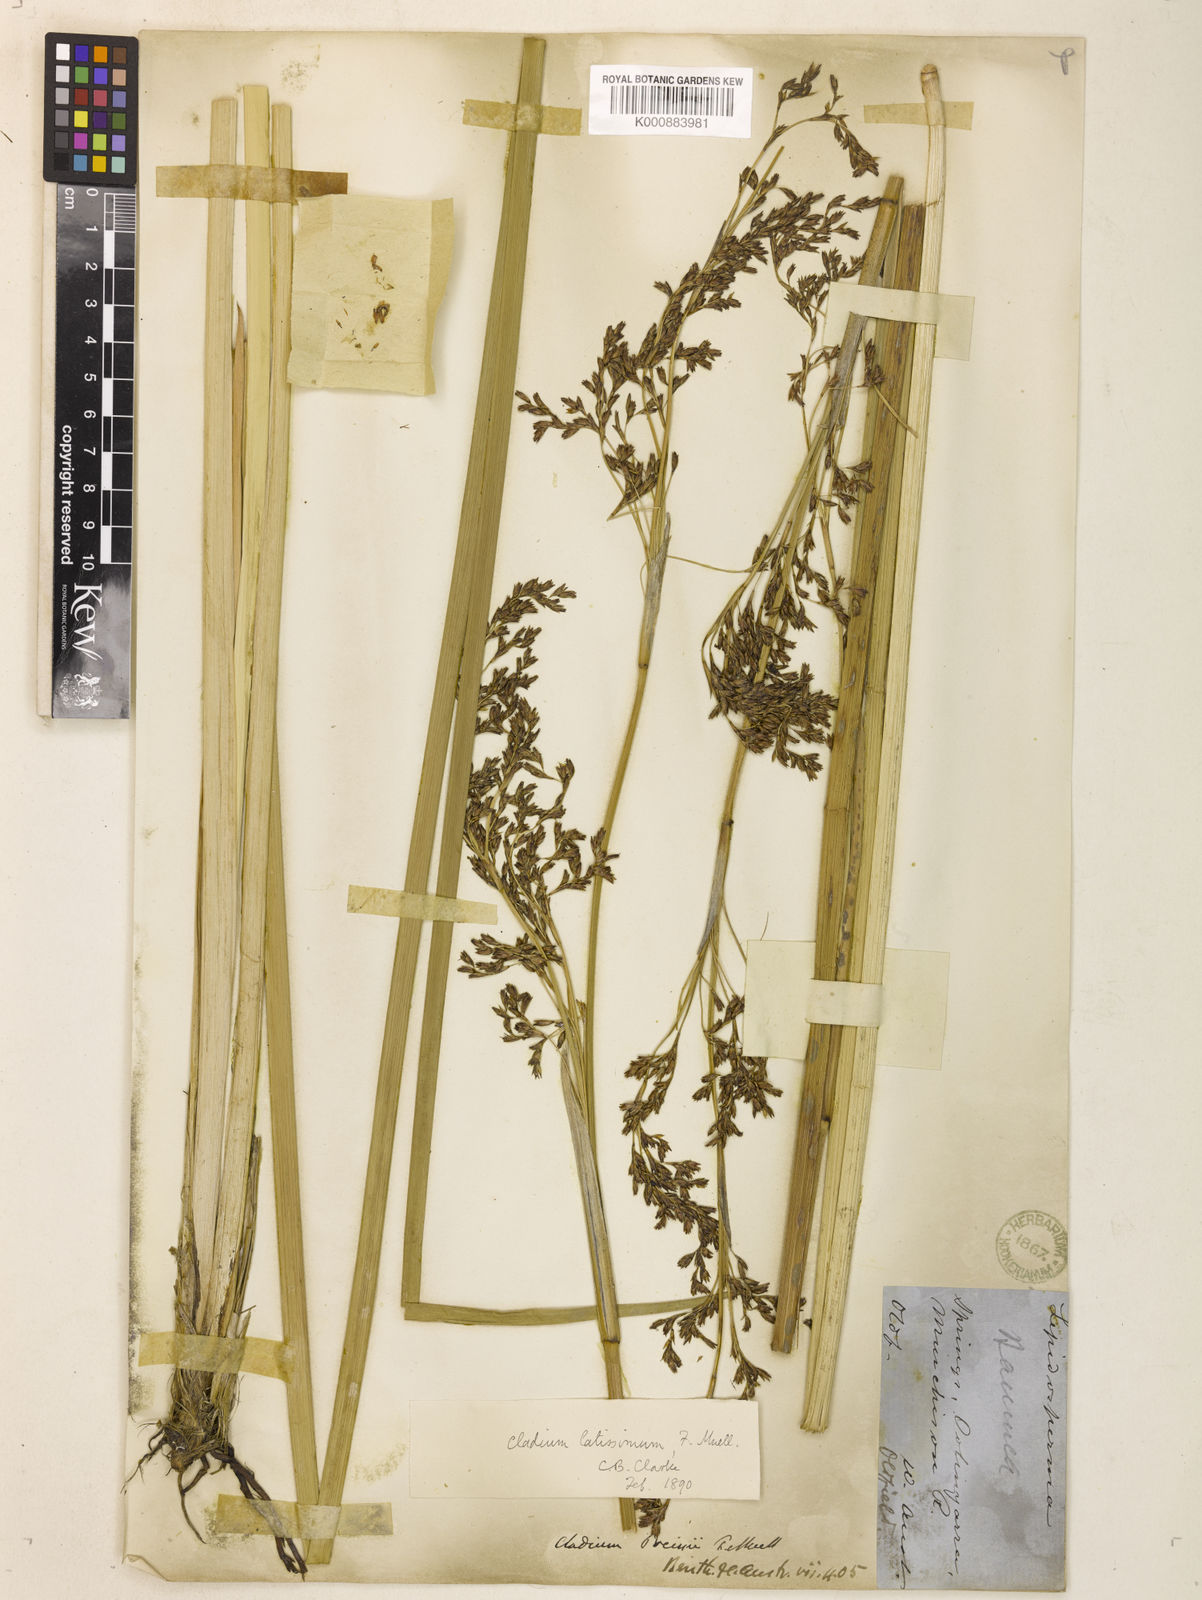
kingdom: Plantae
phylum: Tracheophyta
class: Liliopsida
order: Poales
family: Cyperaceae
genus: Machaerina
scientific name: Machaerina preissii
